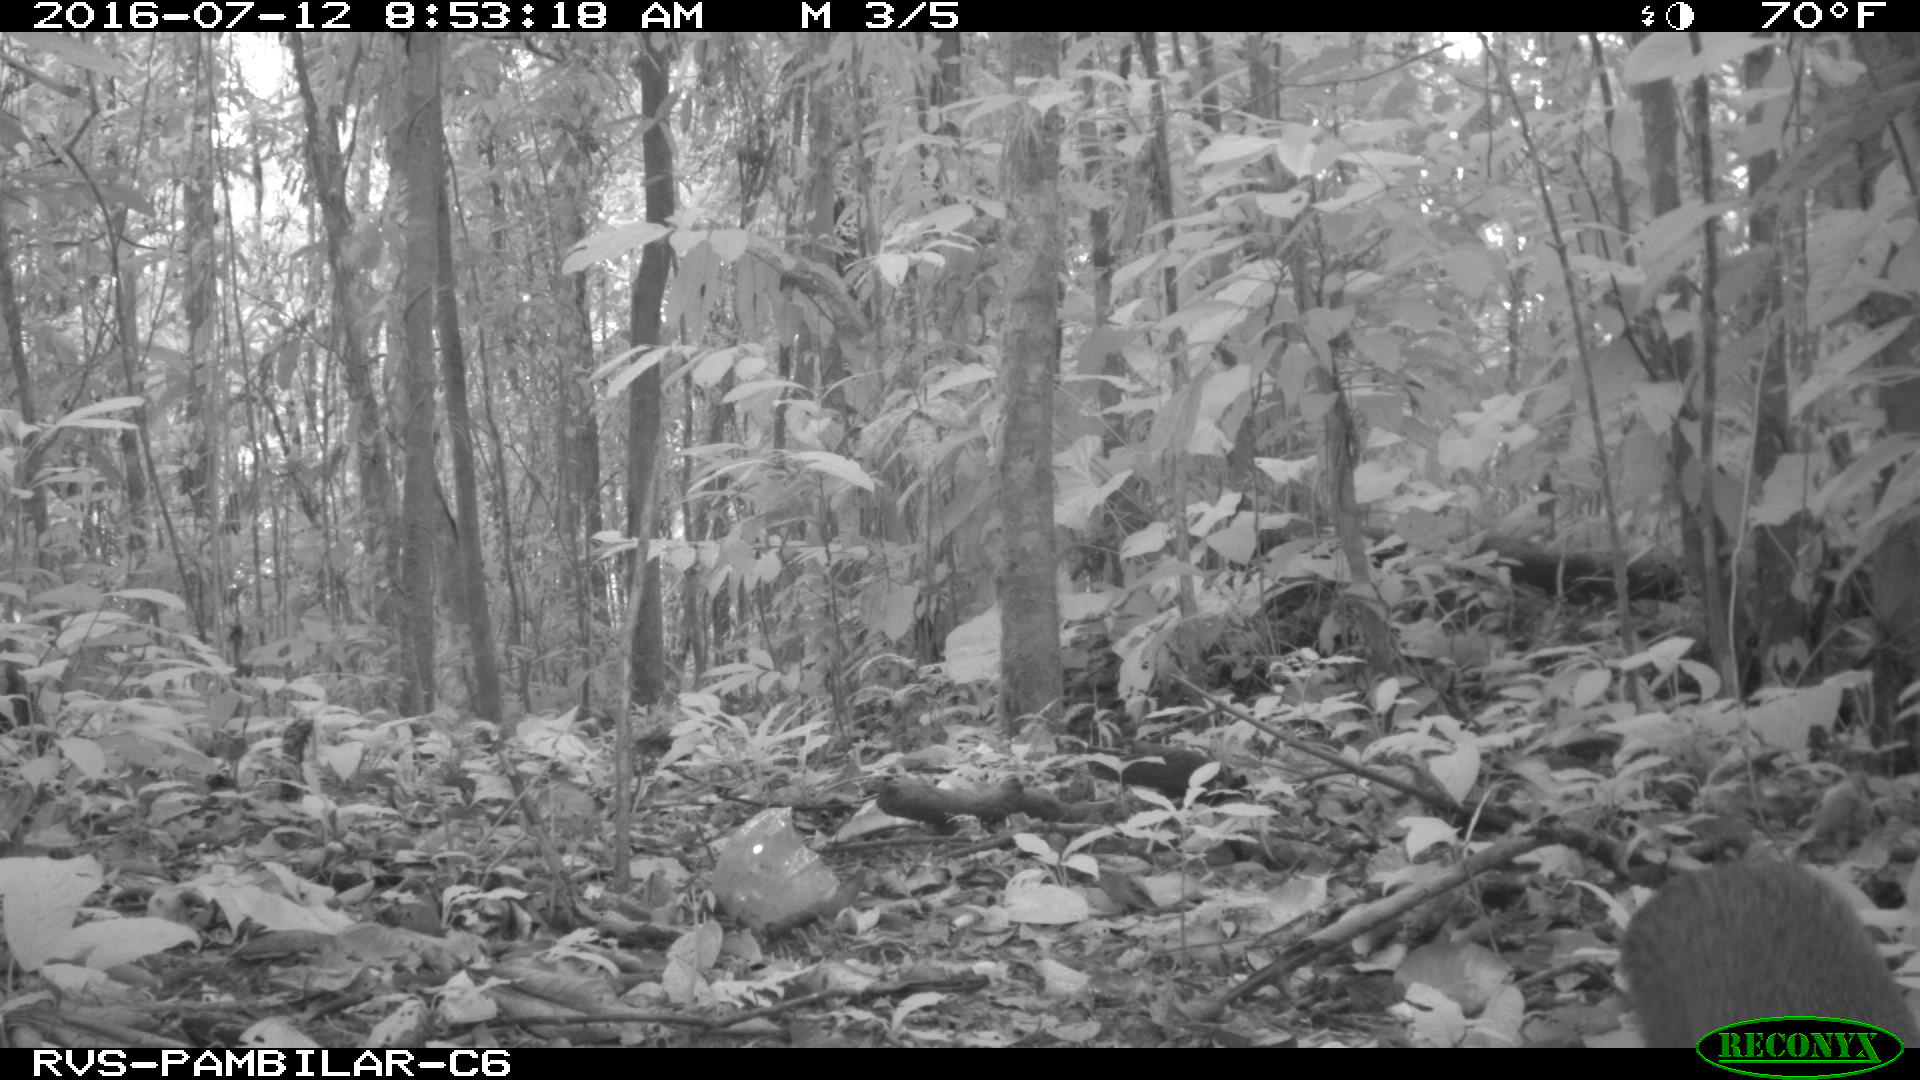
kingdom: Animalia
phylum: Chordata
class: Mammalia
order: Rodentia
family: Dasyproctidae
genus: Dasyprocta
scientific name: Dasyprocta punctata
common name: Central american agouti
